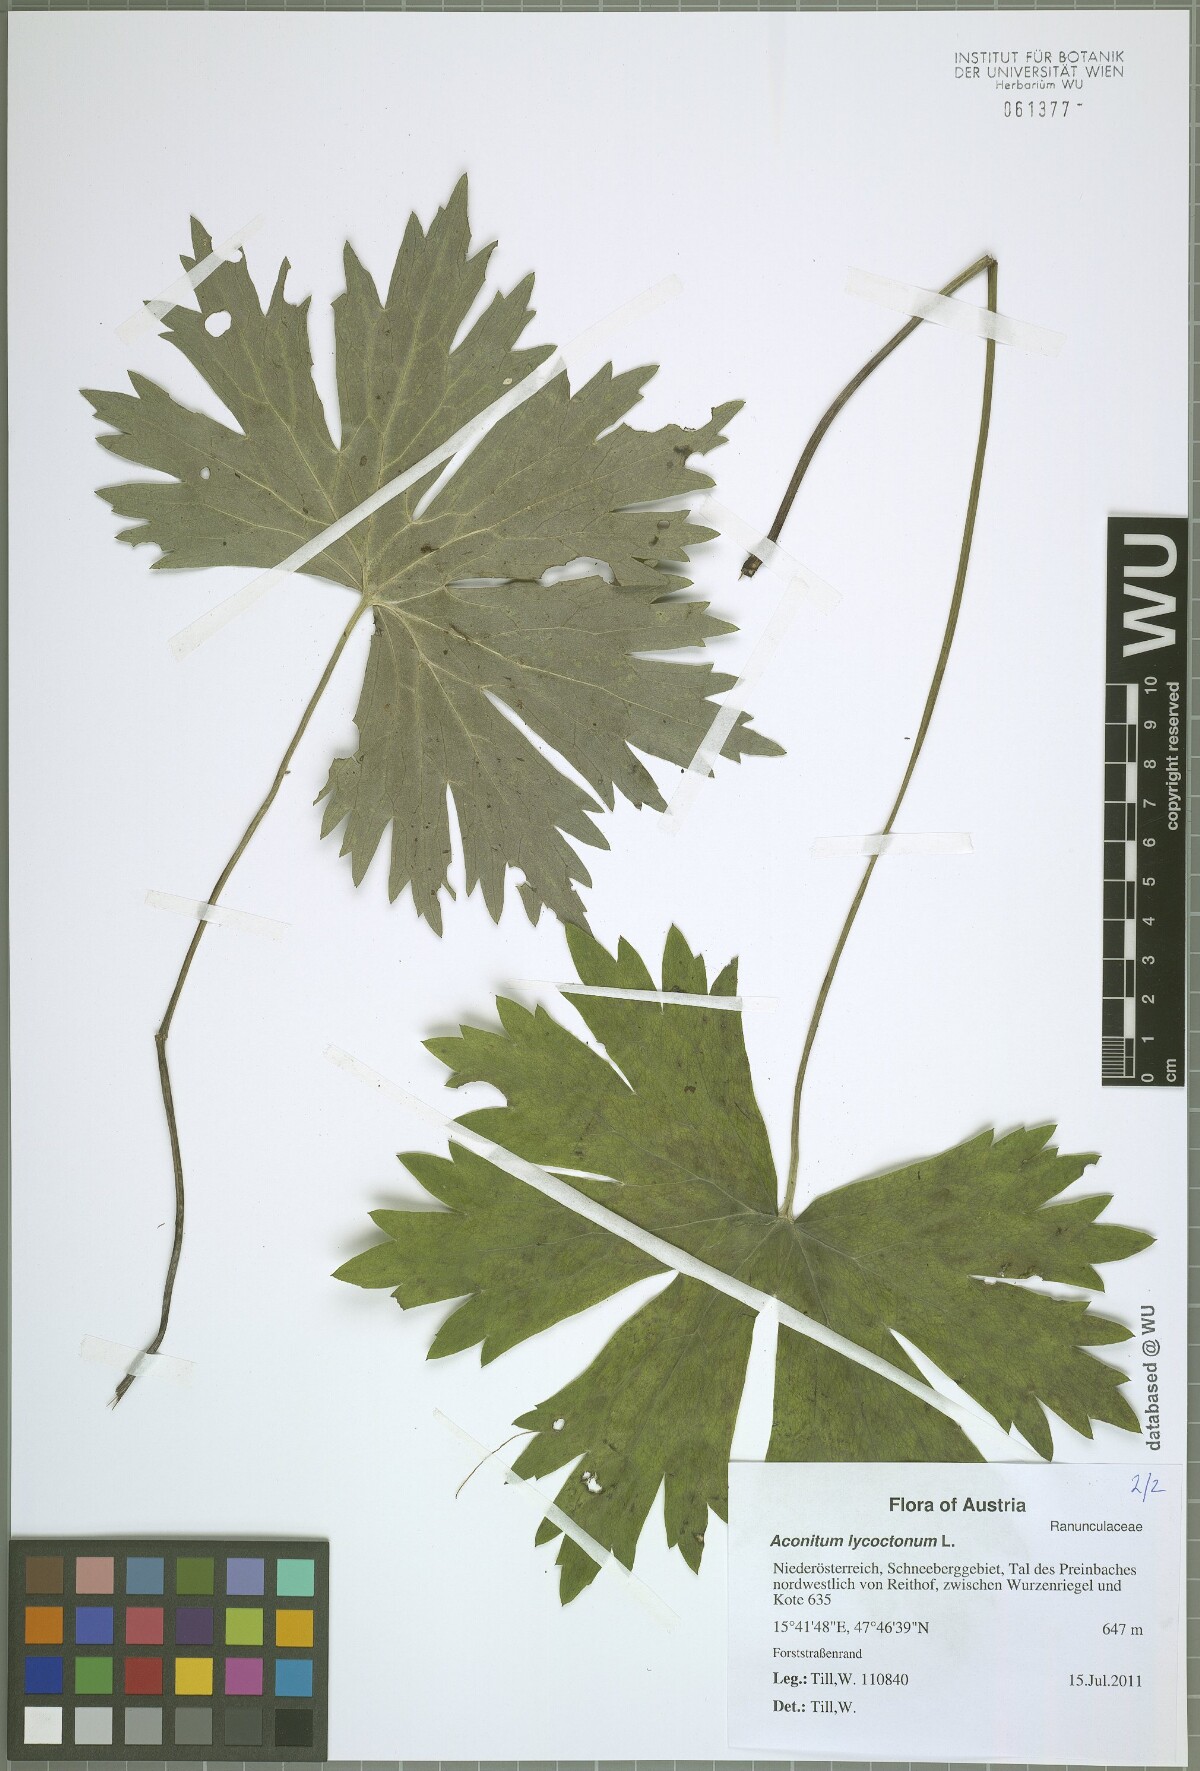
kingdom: Plantae
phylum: Tracheophyta
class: Magnoliopsida
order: Ranunculales
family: Ranunculaceae
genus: Aconitum
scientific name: Aconitum lycoctonum
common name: Wolf's-bane
